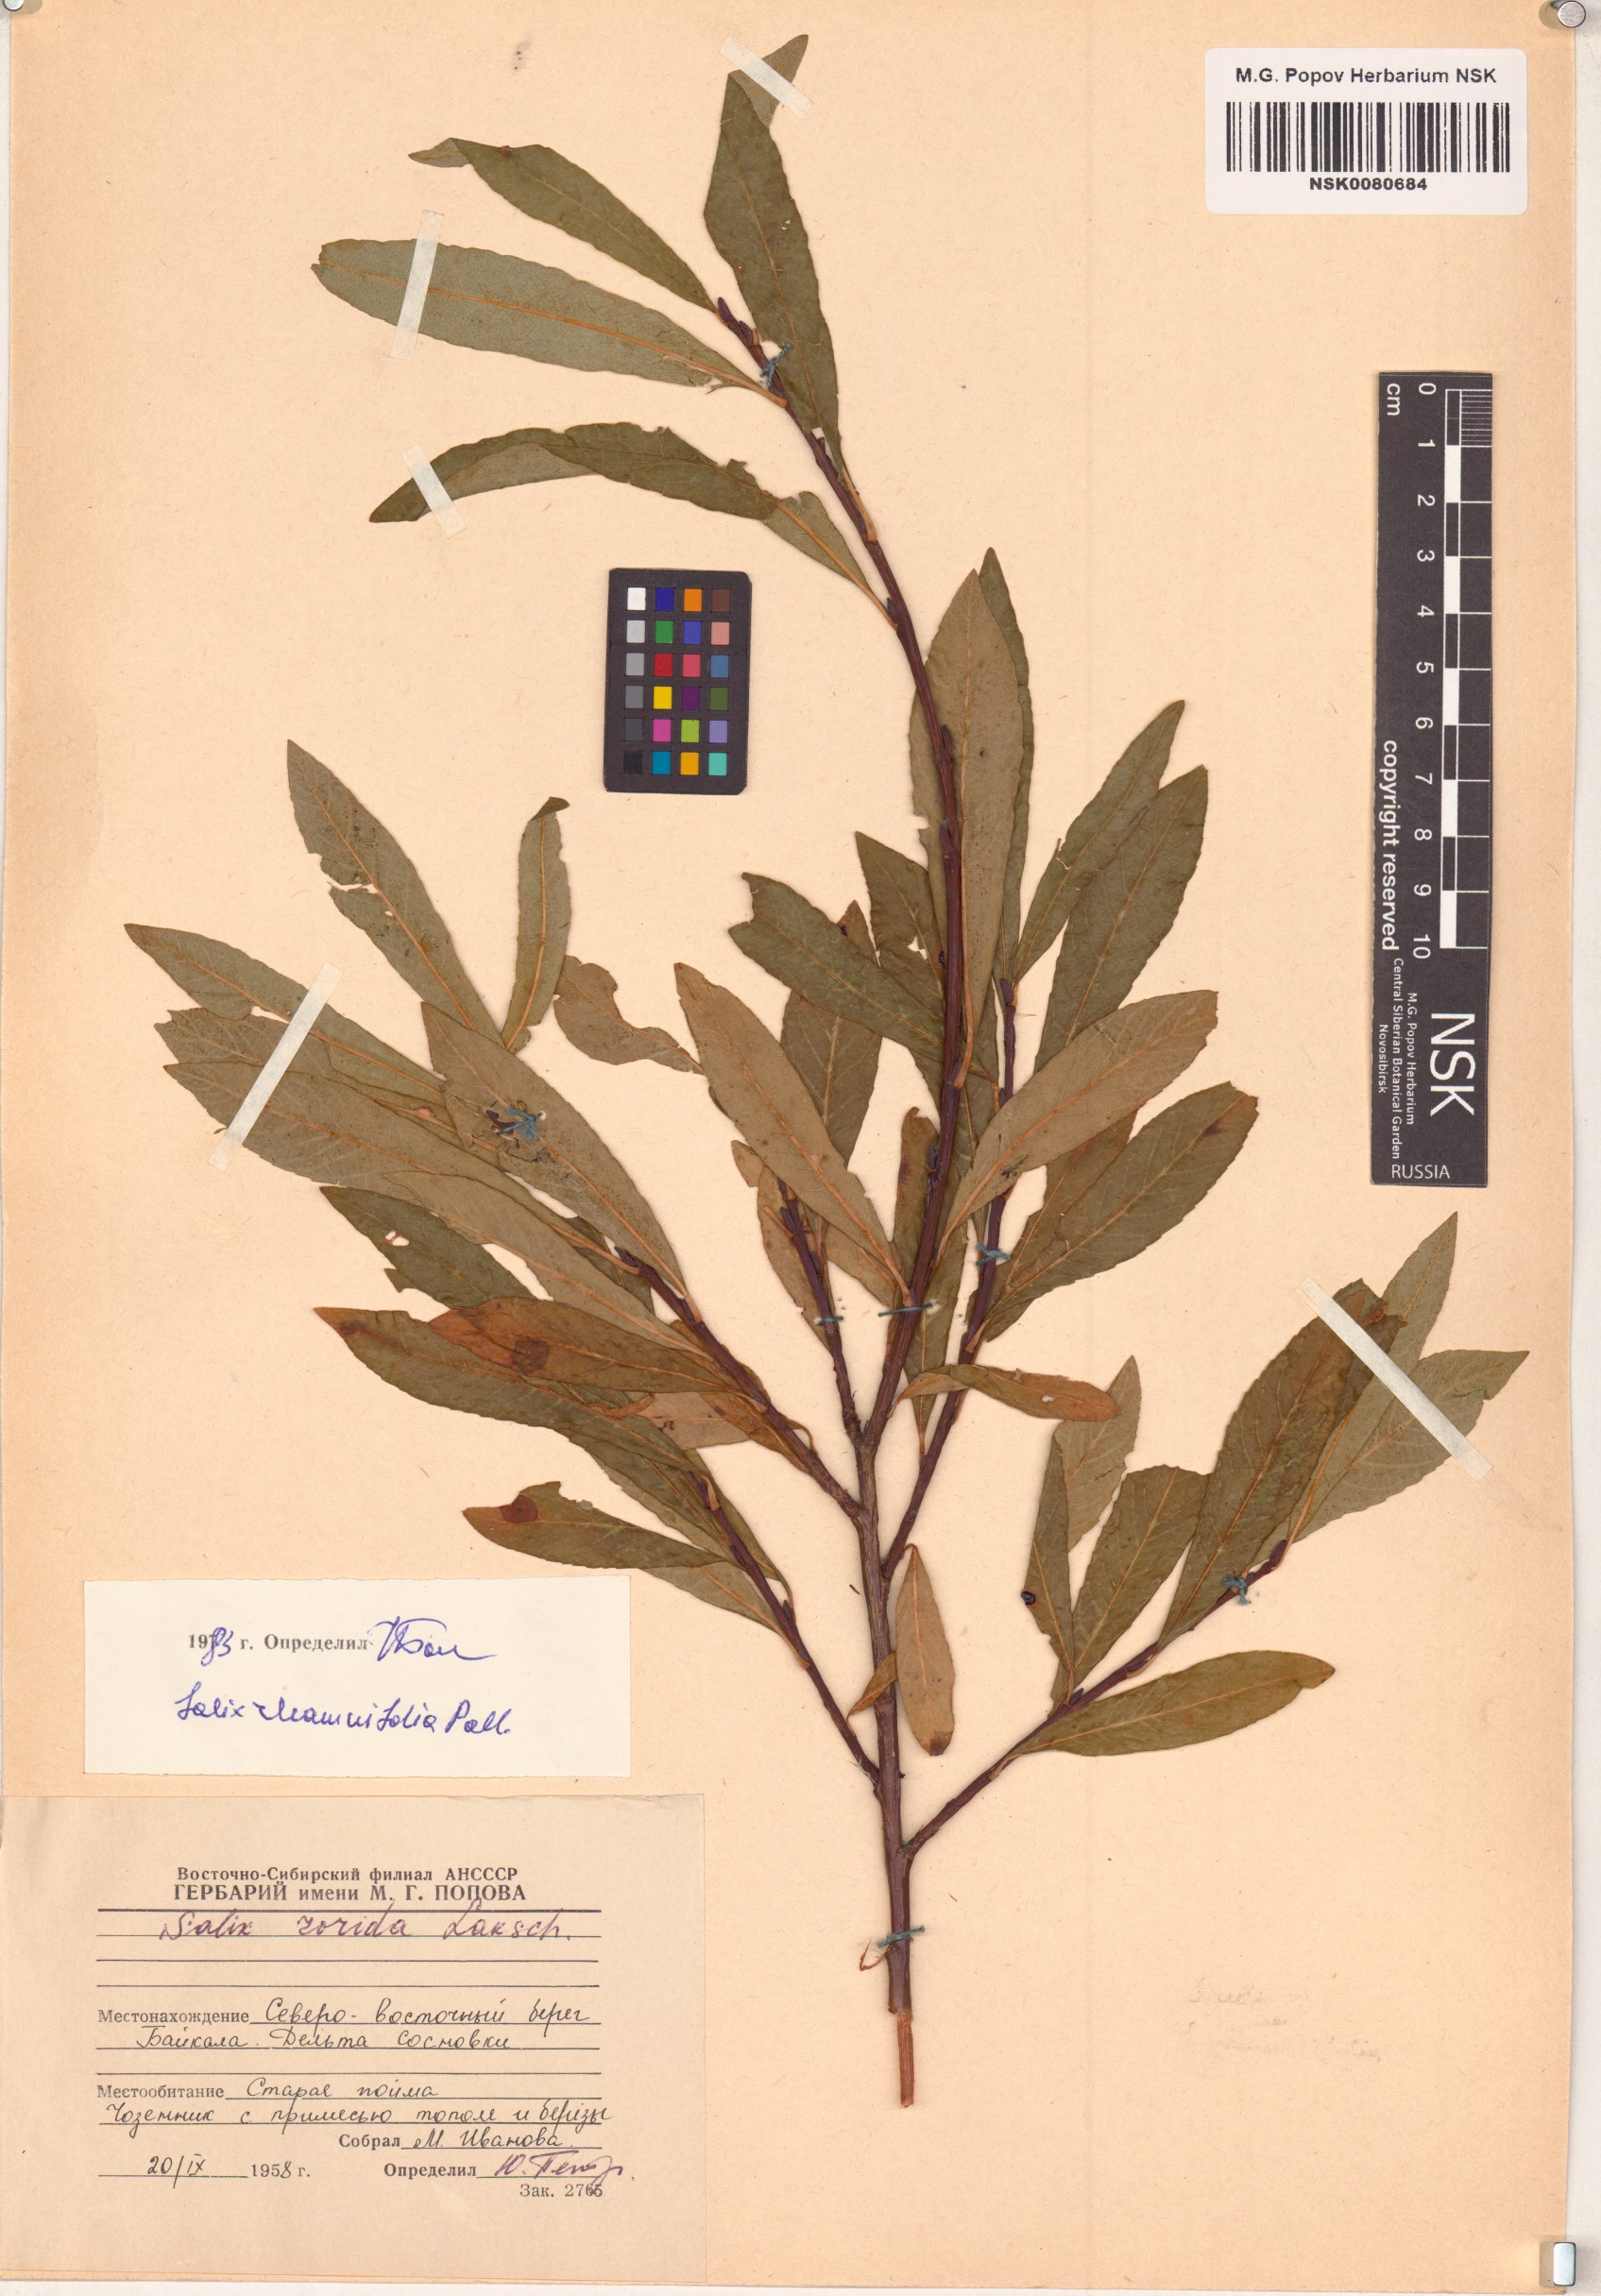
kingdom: Plantae
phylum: Tracheophyta
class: Magnoliopsida
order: Malpighiales
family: Salicaceae
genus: Salix
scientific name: Salix rhamnifolia
